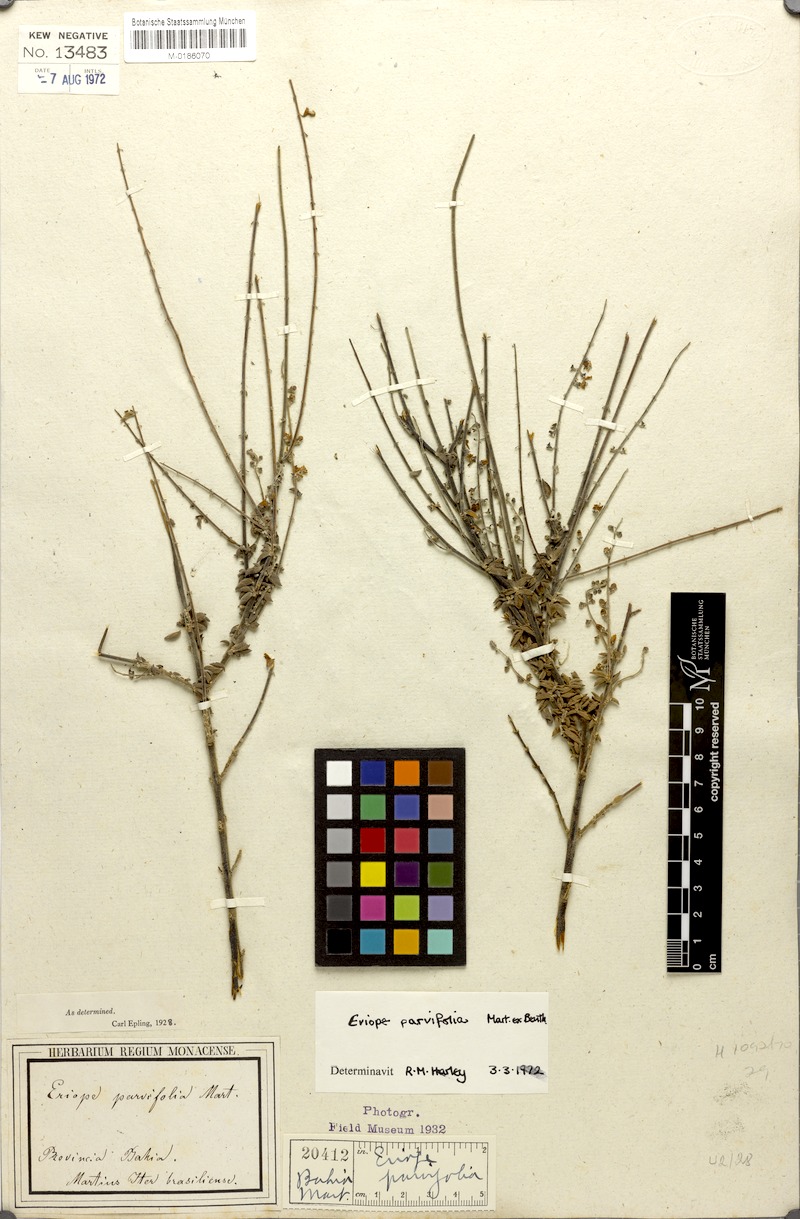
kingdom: Plantae
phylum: Tracheophyta
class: Magnoliopsida
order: Lamiales
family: Lamiaceae
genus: Eriope
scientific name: Eriope parvifolia
